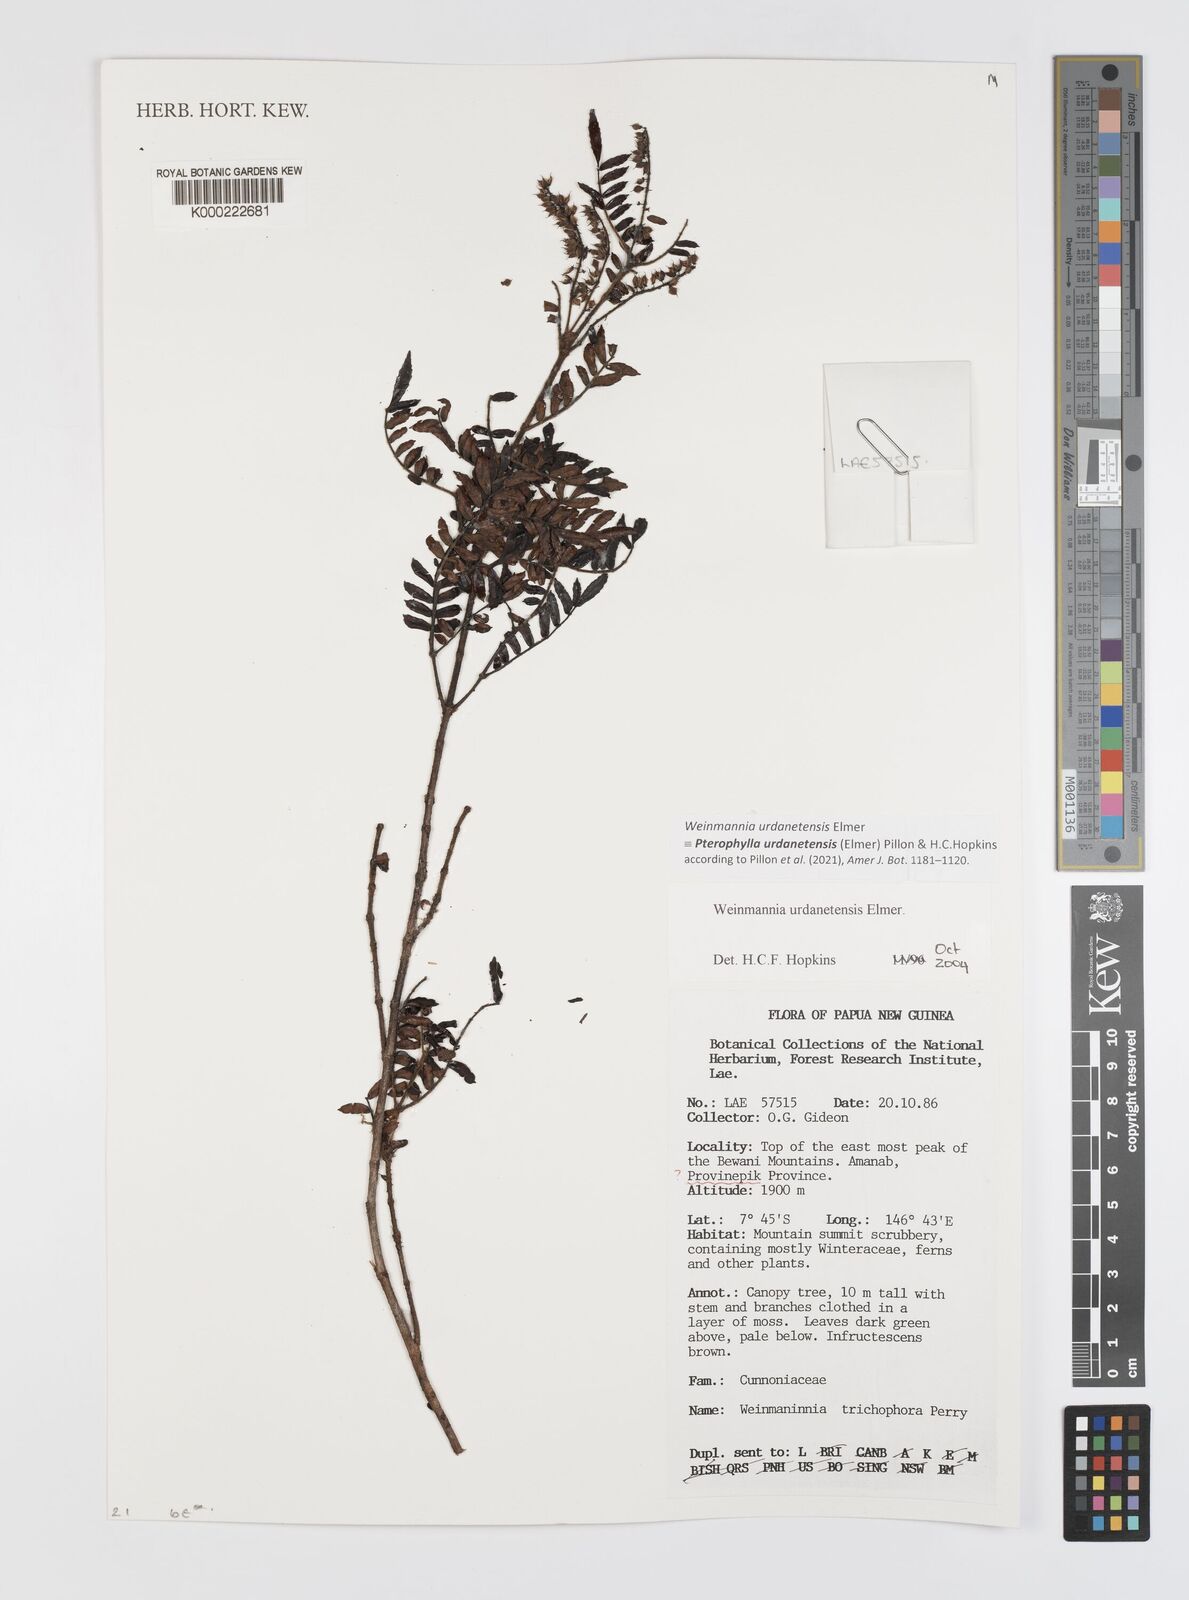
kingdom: Plantae
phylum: Tracheophyta
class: Magnoliopsida
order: Oxalidales
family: Cunoniaceae
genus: Pterophylla
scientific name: Pterophylla urdanetensis
